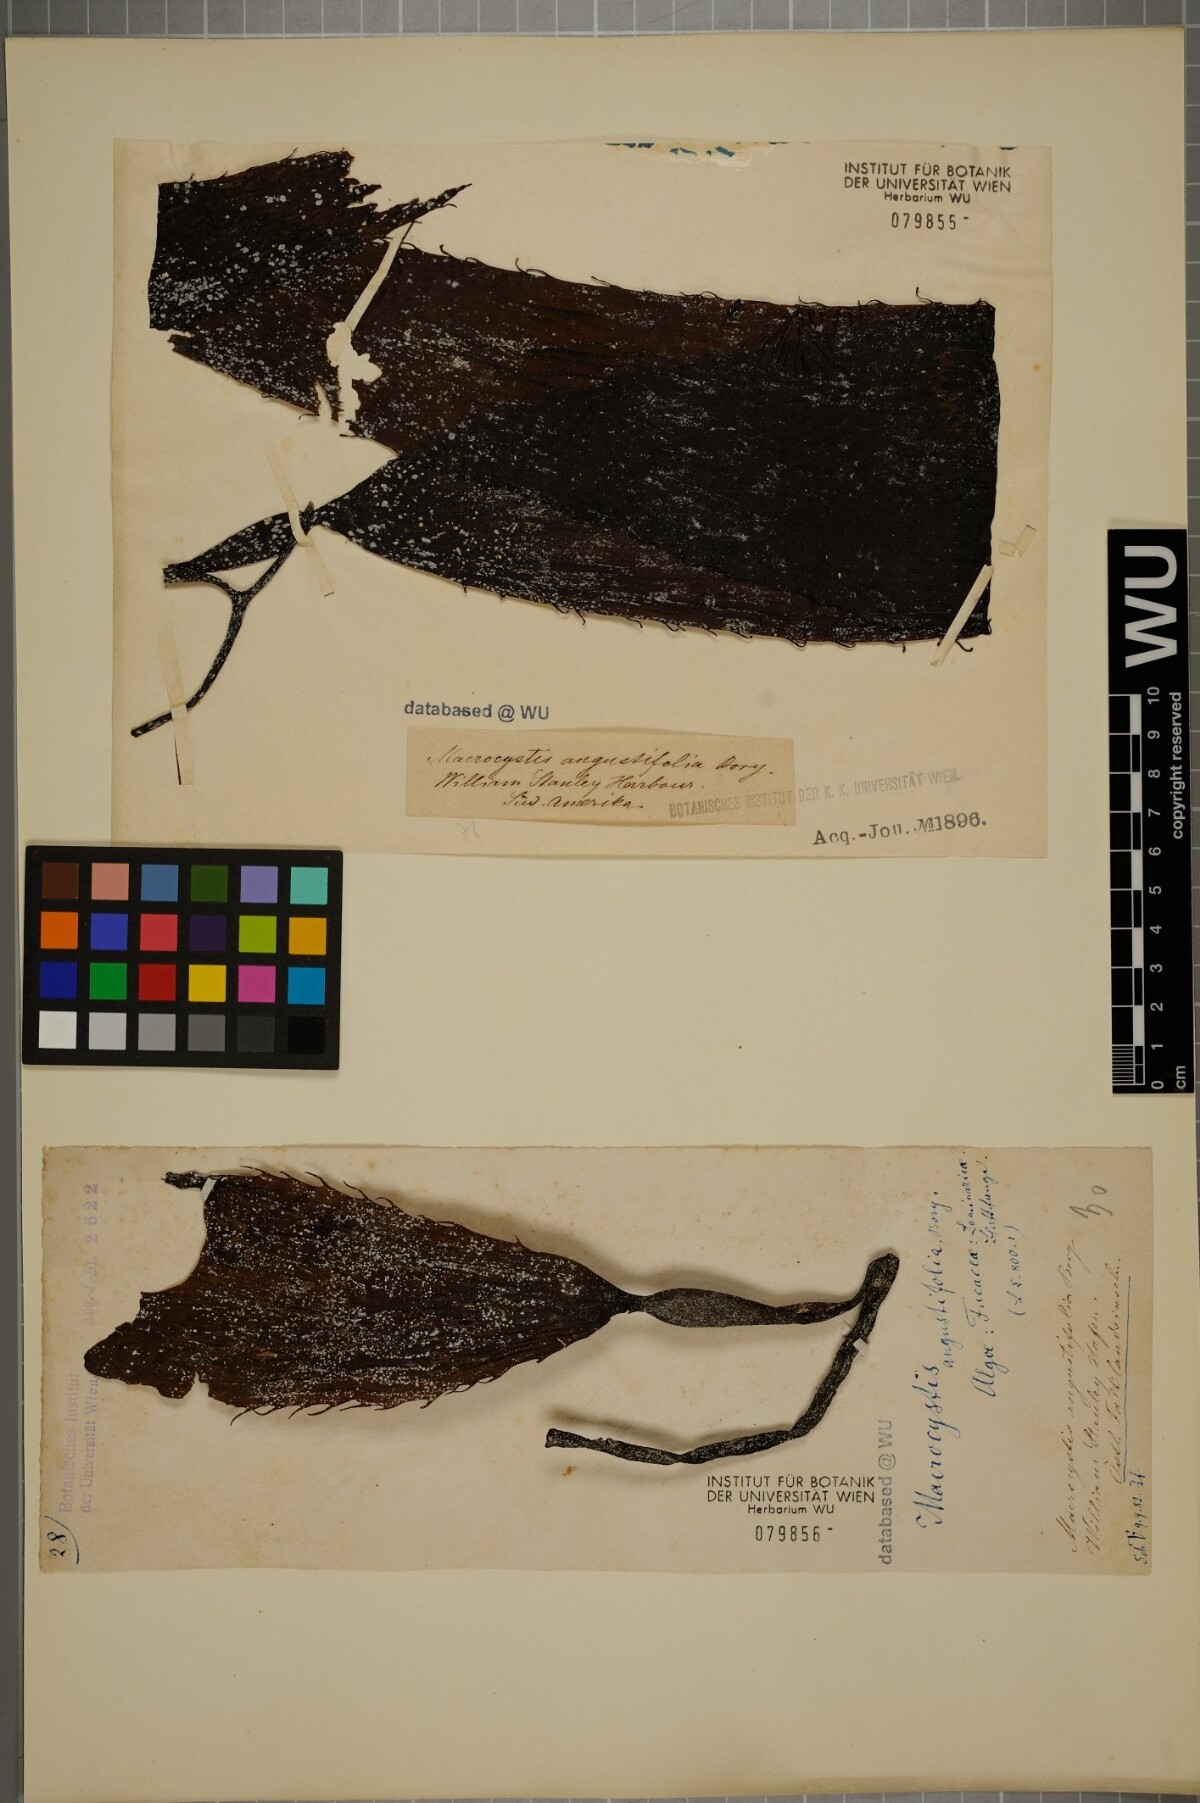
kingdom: Chromista
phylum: Ochrophyta
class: Phaeophyceae
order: Laminariales
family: Laminariaceae
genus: Macrocystis
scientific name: Macrocystis angustifolia
